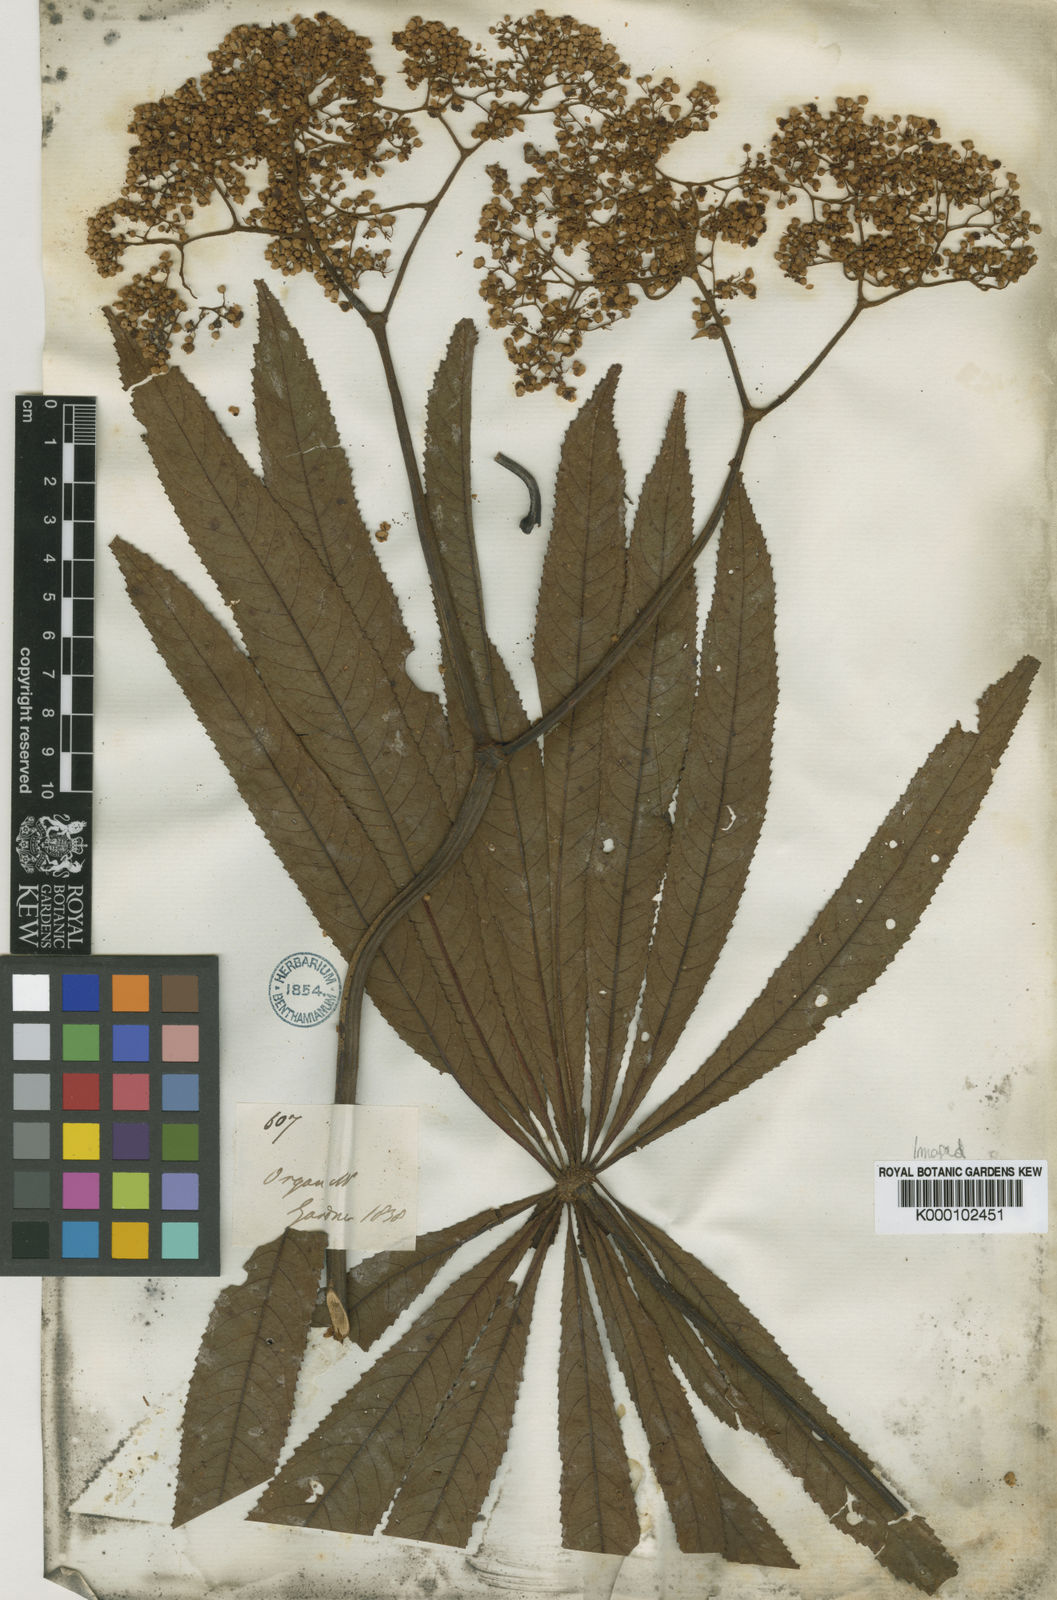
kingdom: Plantae
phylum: Tracheophyta
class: Magnoliopsida
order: Cucurbitales
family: Begoniaceae
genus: Begonia
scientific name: Begonia
